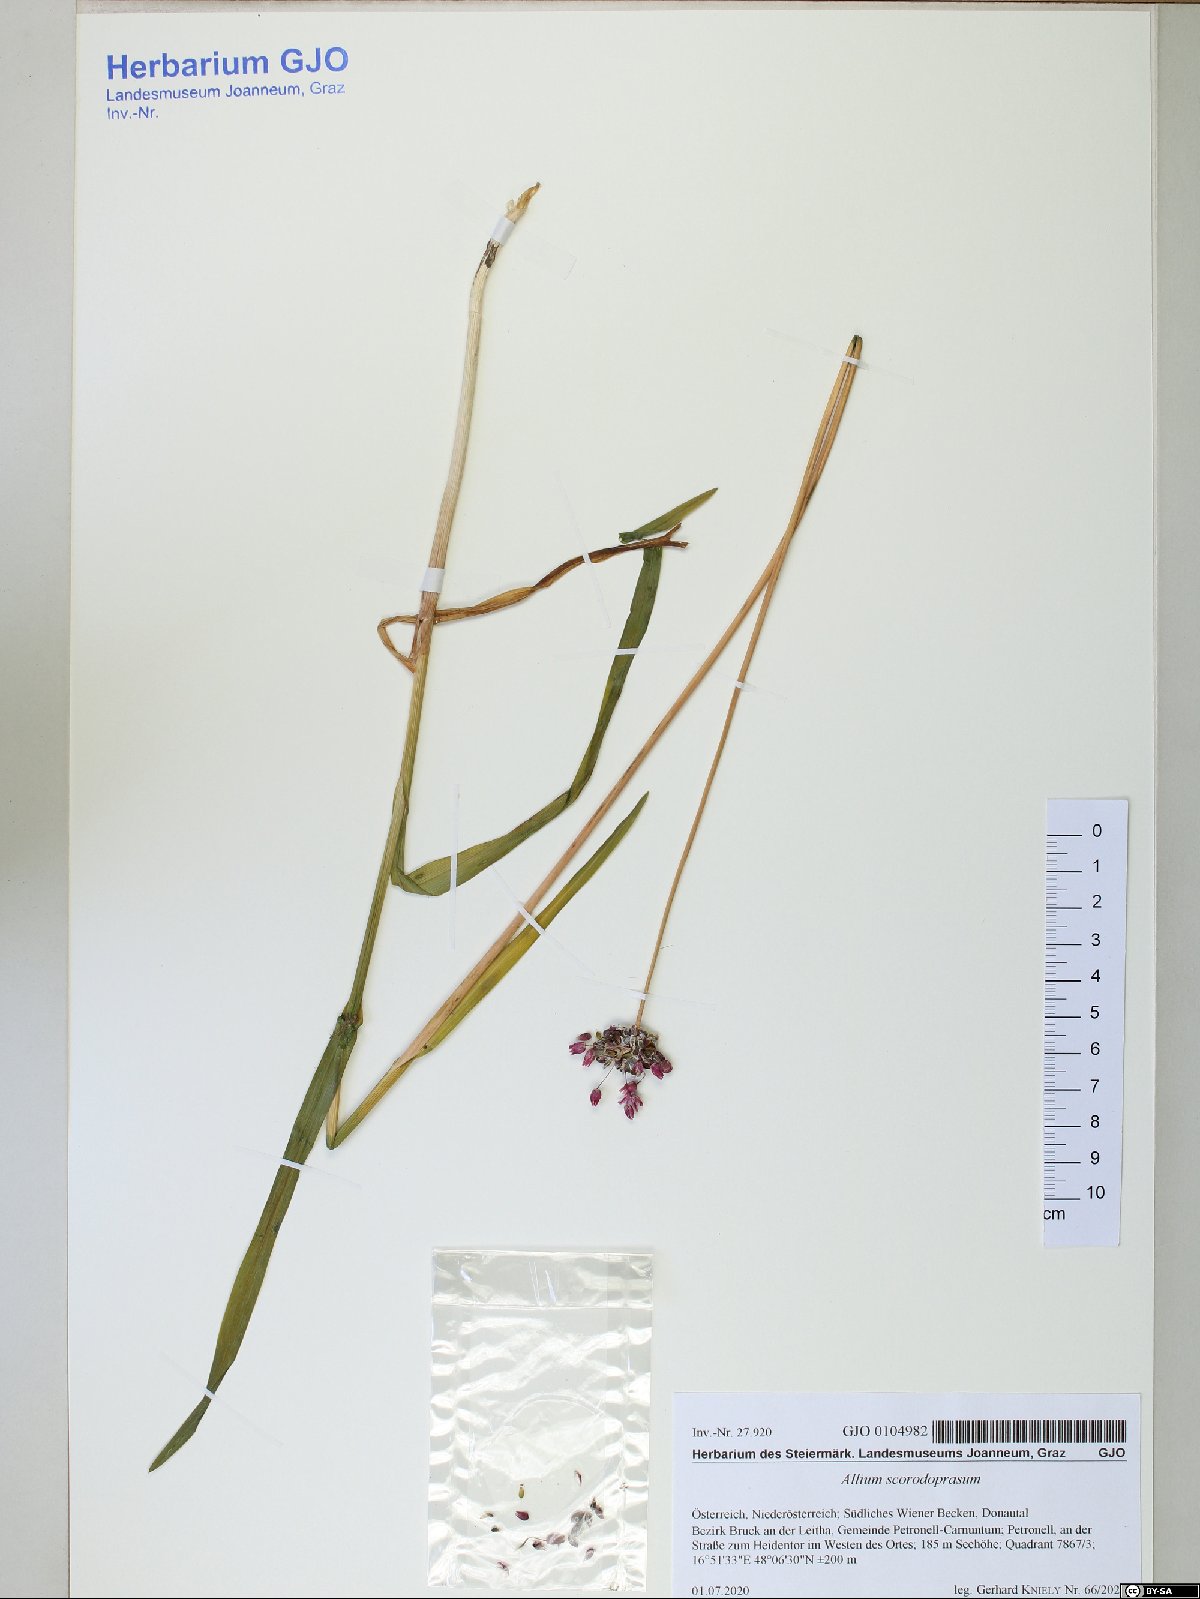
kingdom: Plantae
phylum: Tracheophyta
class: Liliopsida
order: Asparagales
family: Amaryllidaceae
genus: Allium
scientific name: Allium scorodoprasum
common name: Sand leek
